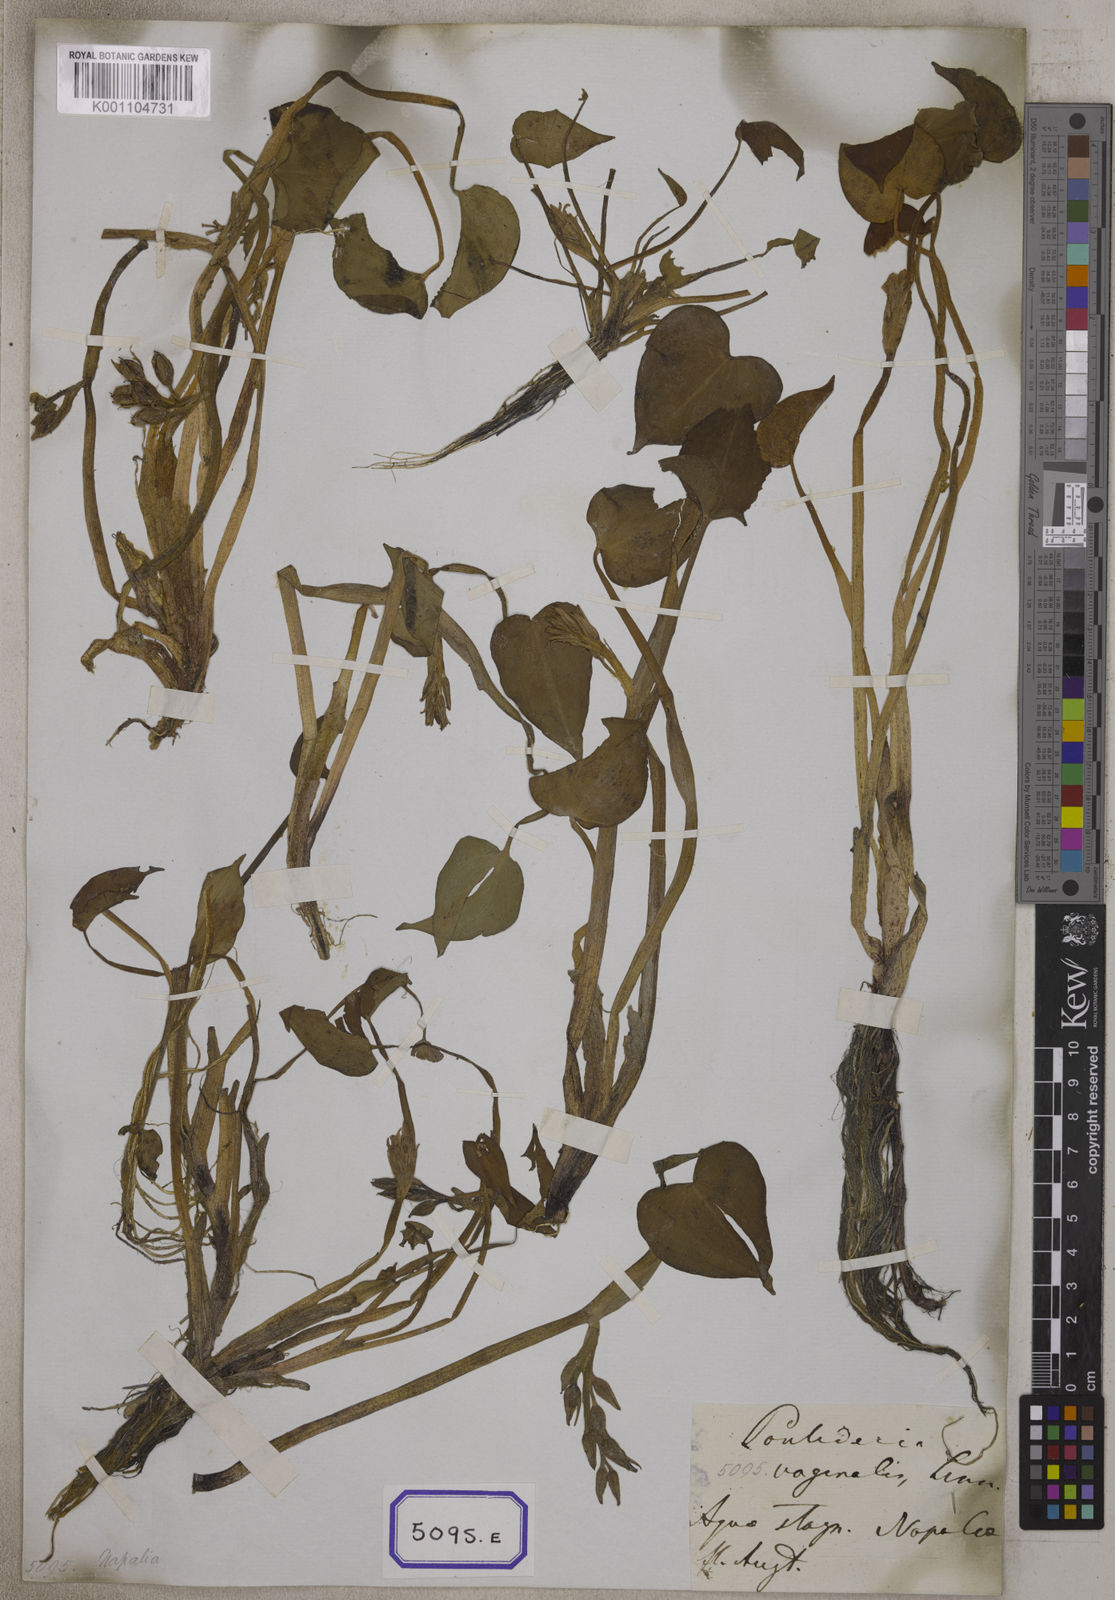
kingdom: Plantae
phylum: Tracheophyta
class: Liliopsida
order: Commelinales
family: Pontederiaceae
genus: Pontederia
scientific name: Pontederia
